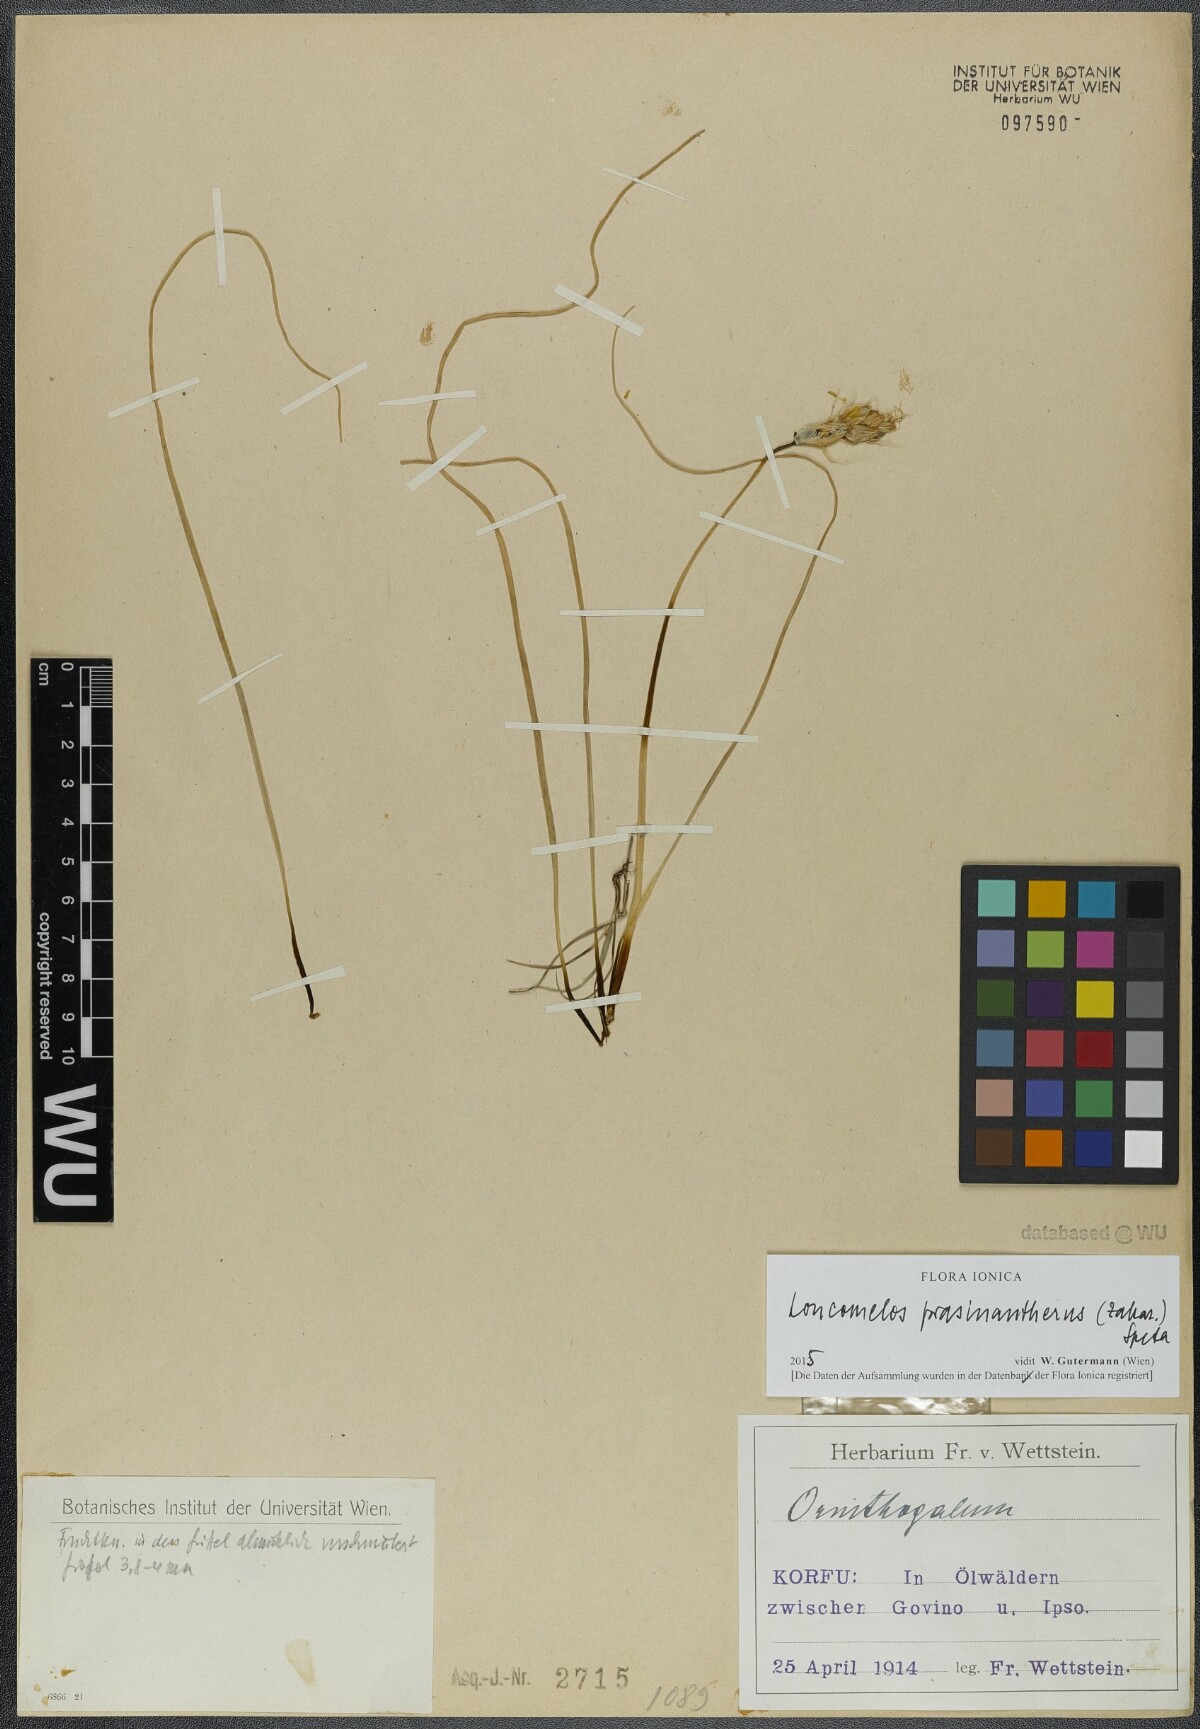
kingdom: Plantae
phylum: Tracheophyta
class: Liliopsida
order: Asparagales
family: Asparagaceae
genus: Ornithogalum
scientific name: Ornithogalum prasinantherum
